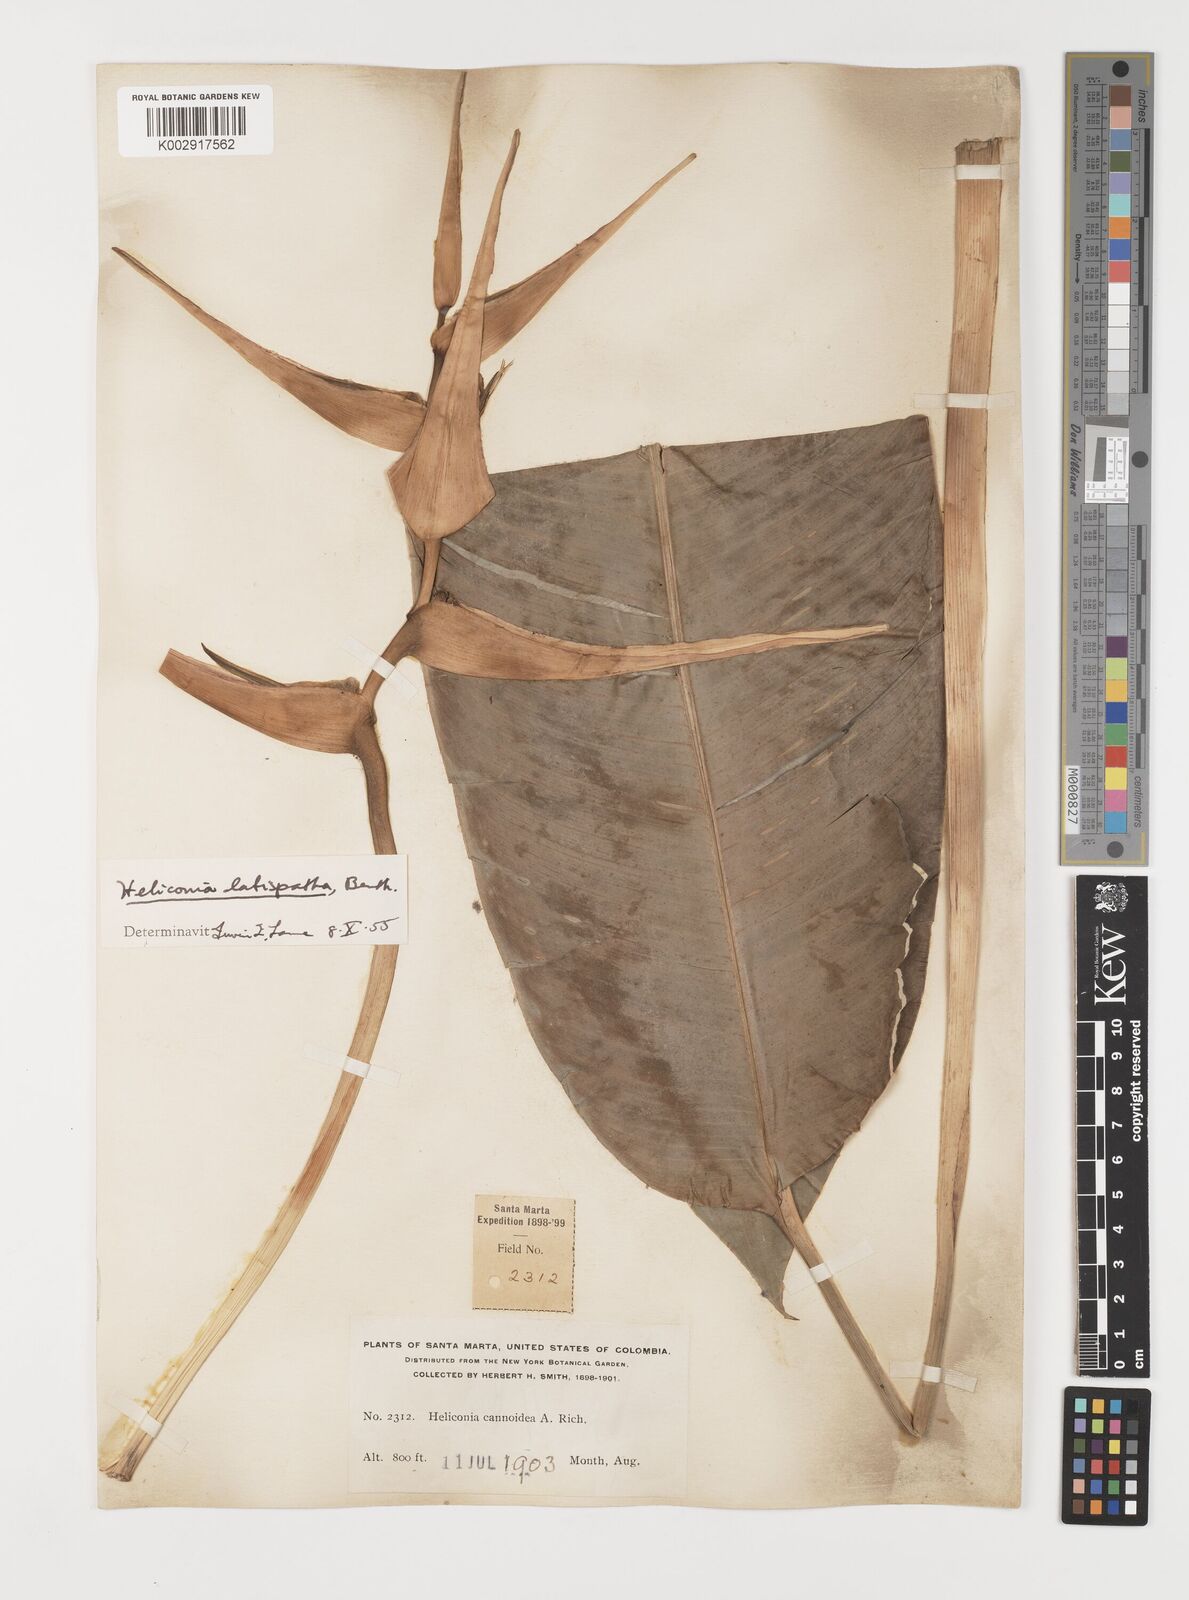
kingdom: Plantae
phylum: Tracheophyta
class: Liliopsida
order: Zingiberales
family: Heliconiaceae
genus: Heliconia
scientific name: Heliconia latispatha
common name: Expanded lobsterclaw
